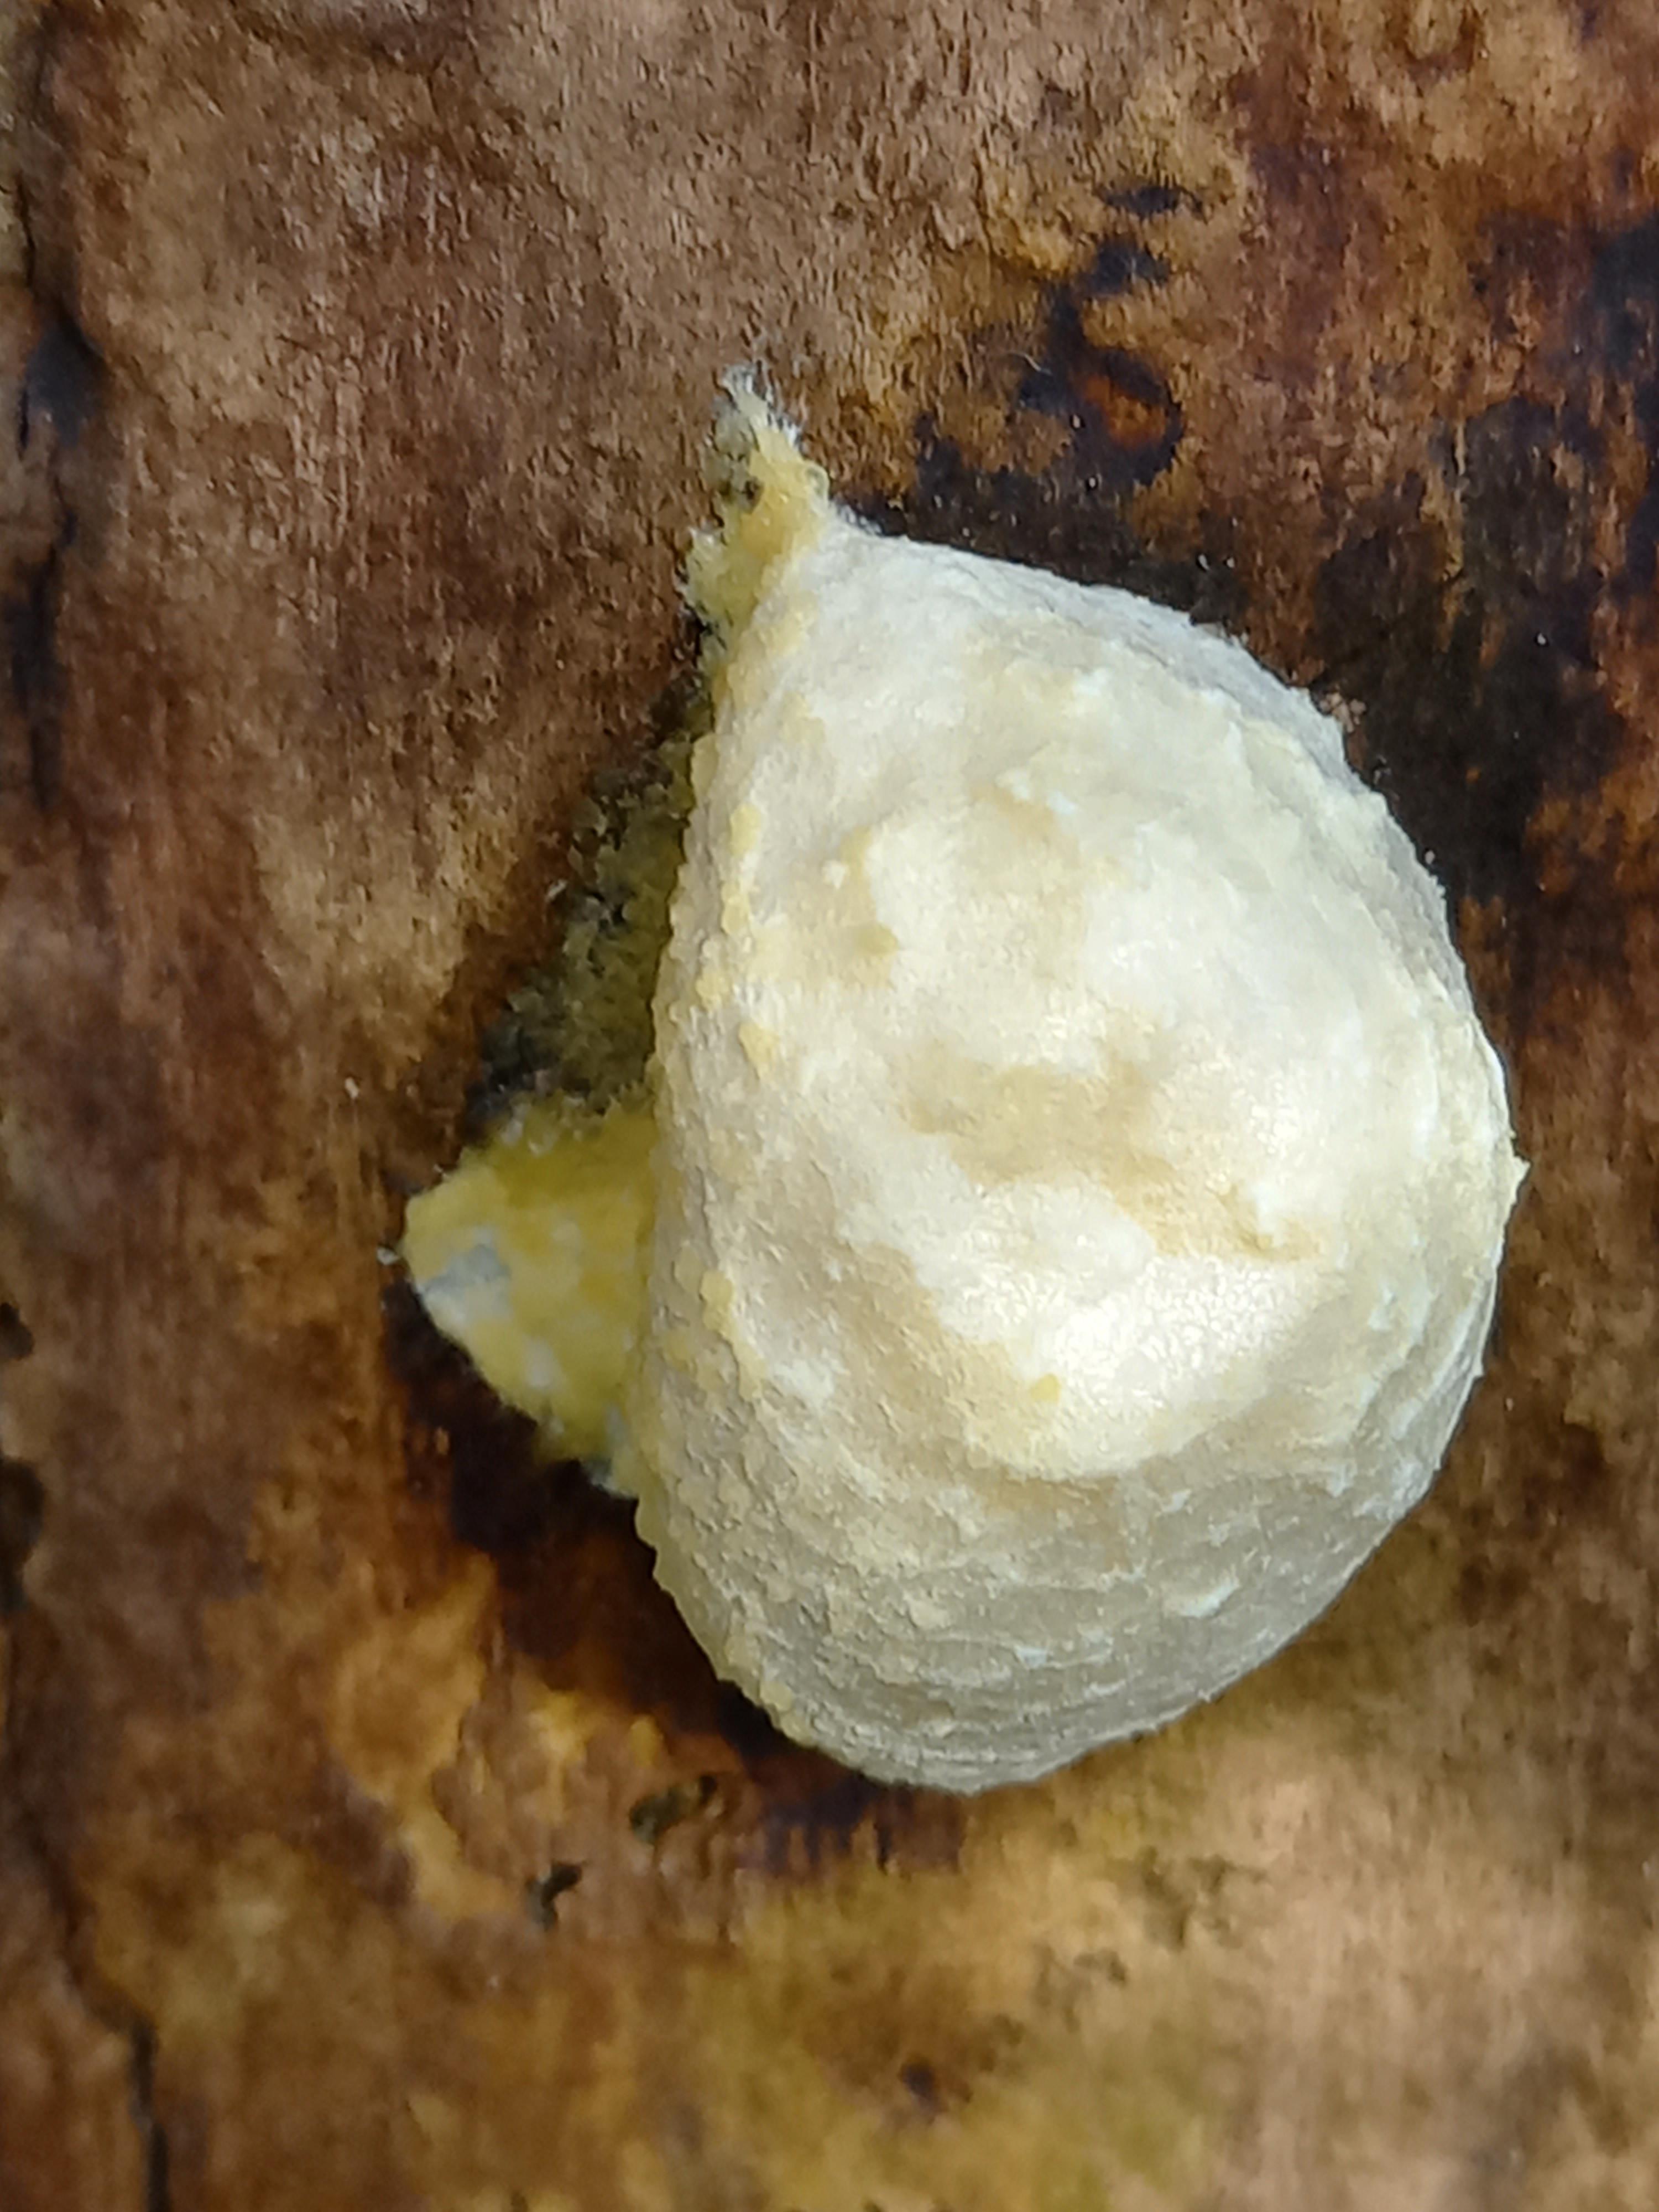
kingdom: Protozoa
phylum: Mycetozoa
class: Myxomycetes
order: Cribrariales
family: Tubiferaceae
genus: Reticularia
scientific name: Reticularia lycoperdon
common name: skinnende støvpude
